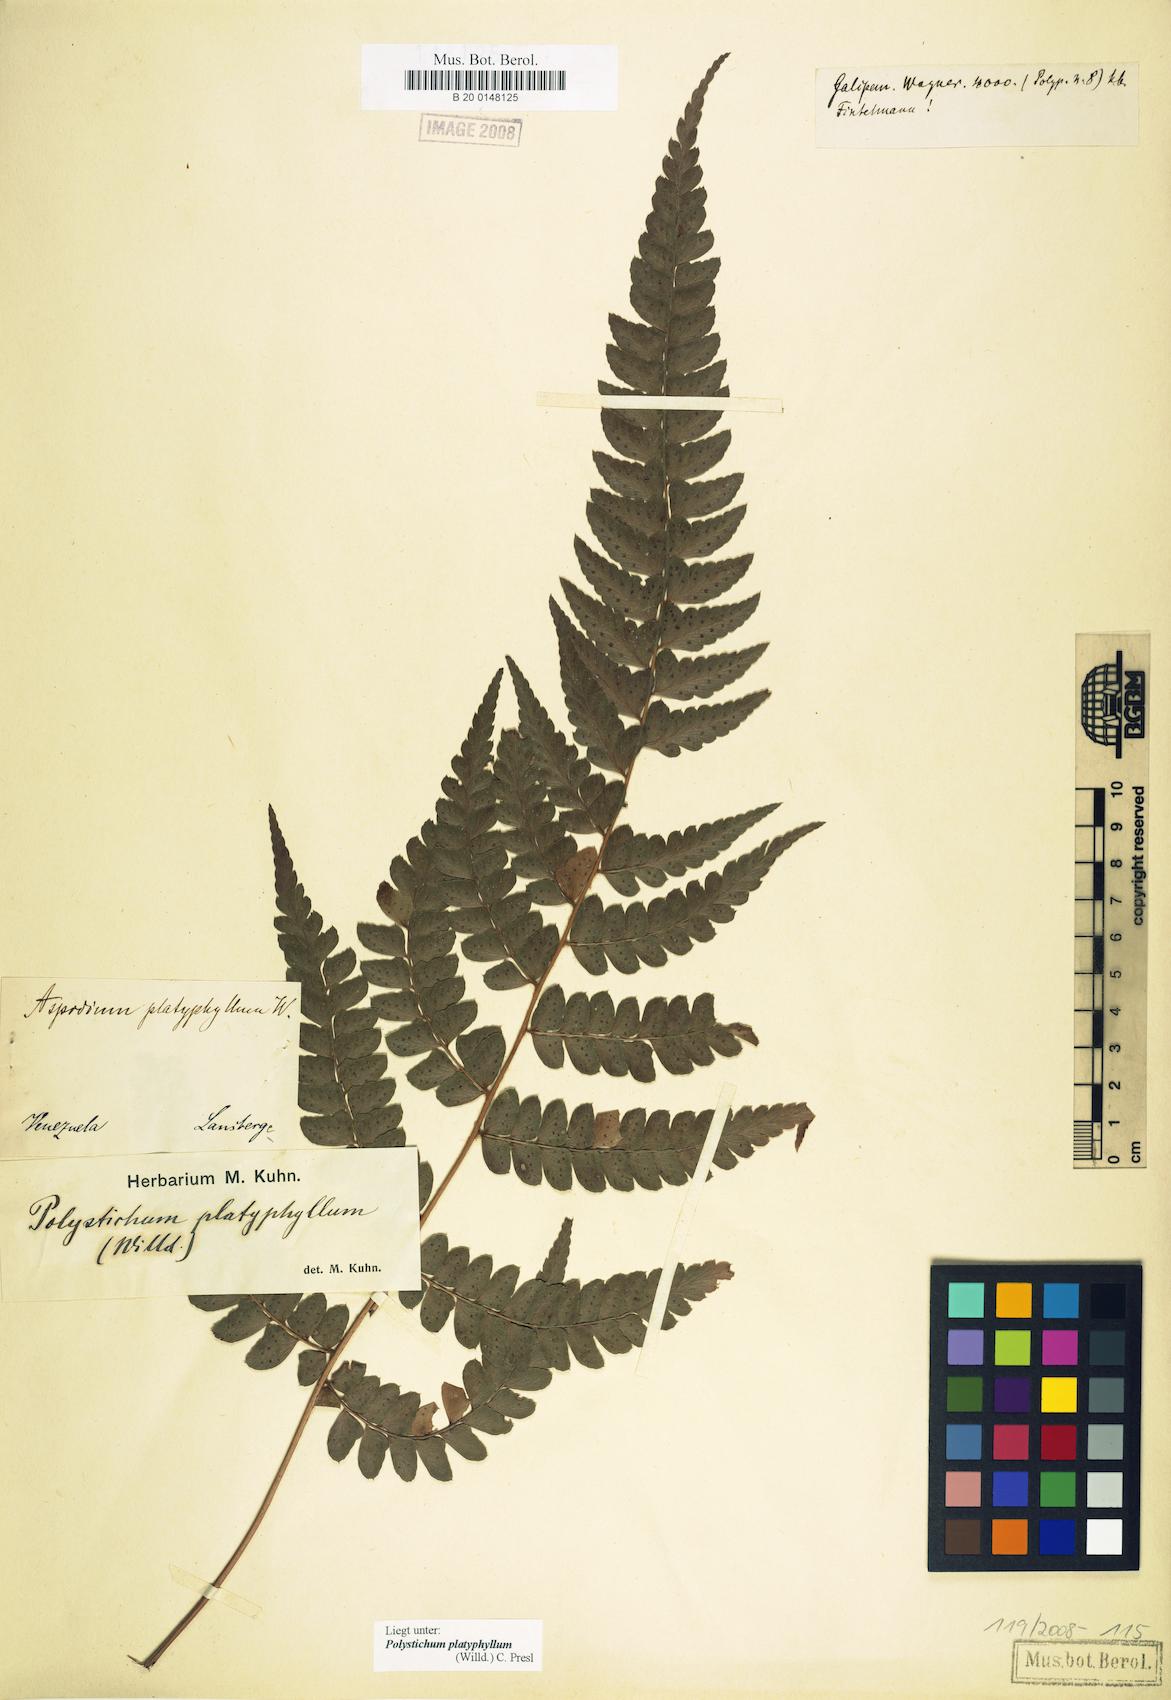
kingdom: Plantae
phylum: Tracheophyta
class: Polypodiopsida
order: Polypodiales
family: Dryopteridaceae
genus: Polystichum
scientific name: Polystichum platyphyllum
